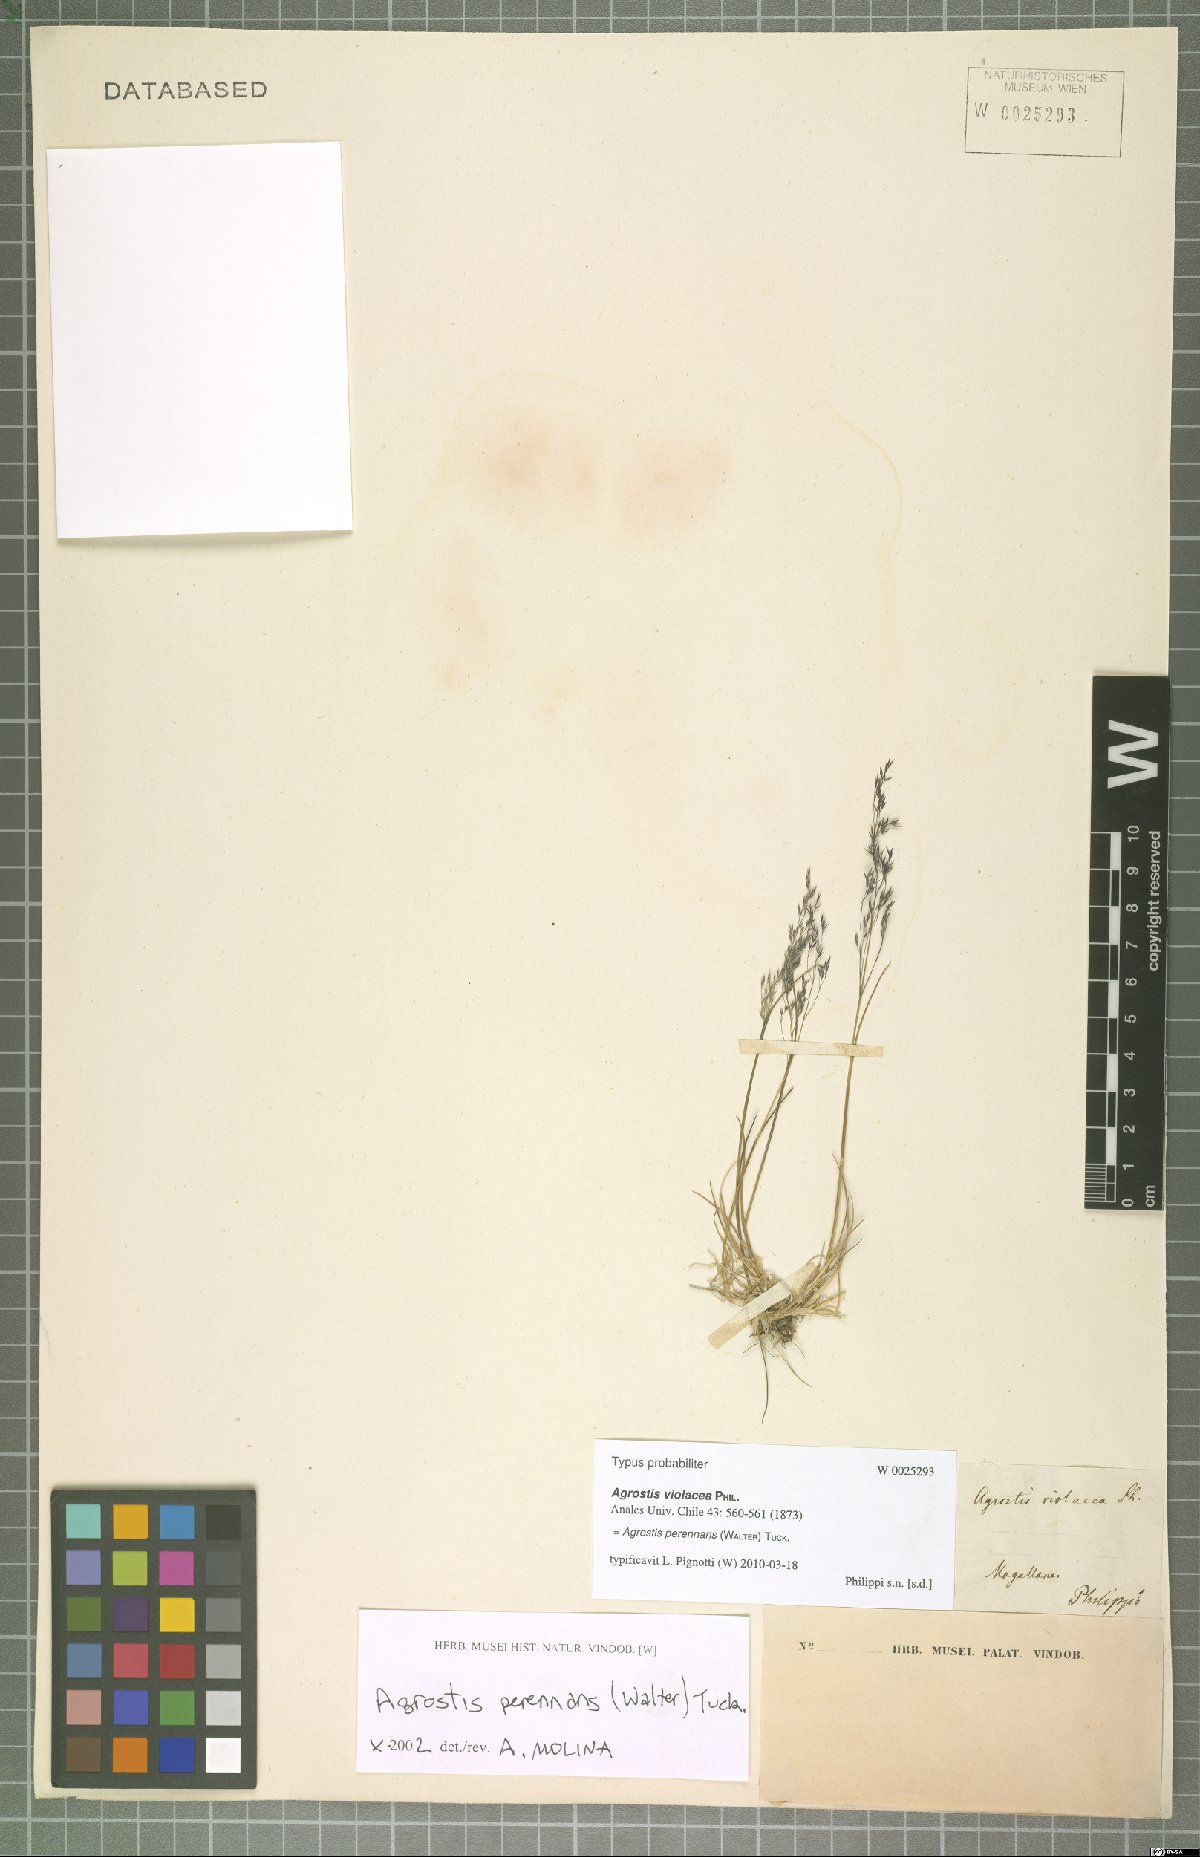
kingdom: Plantae
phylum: Tracheophyta
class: Liliopsida
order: Poales
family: Poaceae
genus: Agrostis
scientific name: Agrostis perennans
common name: Autumn bent
